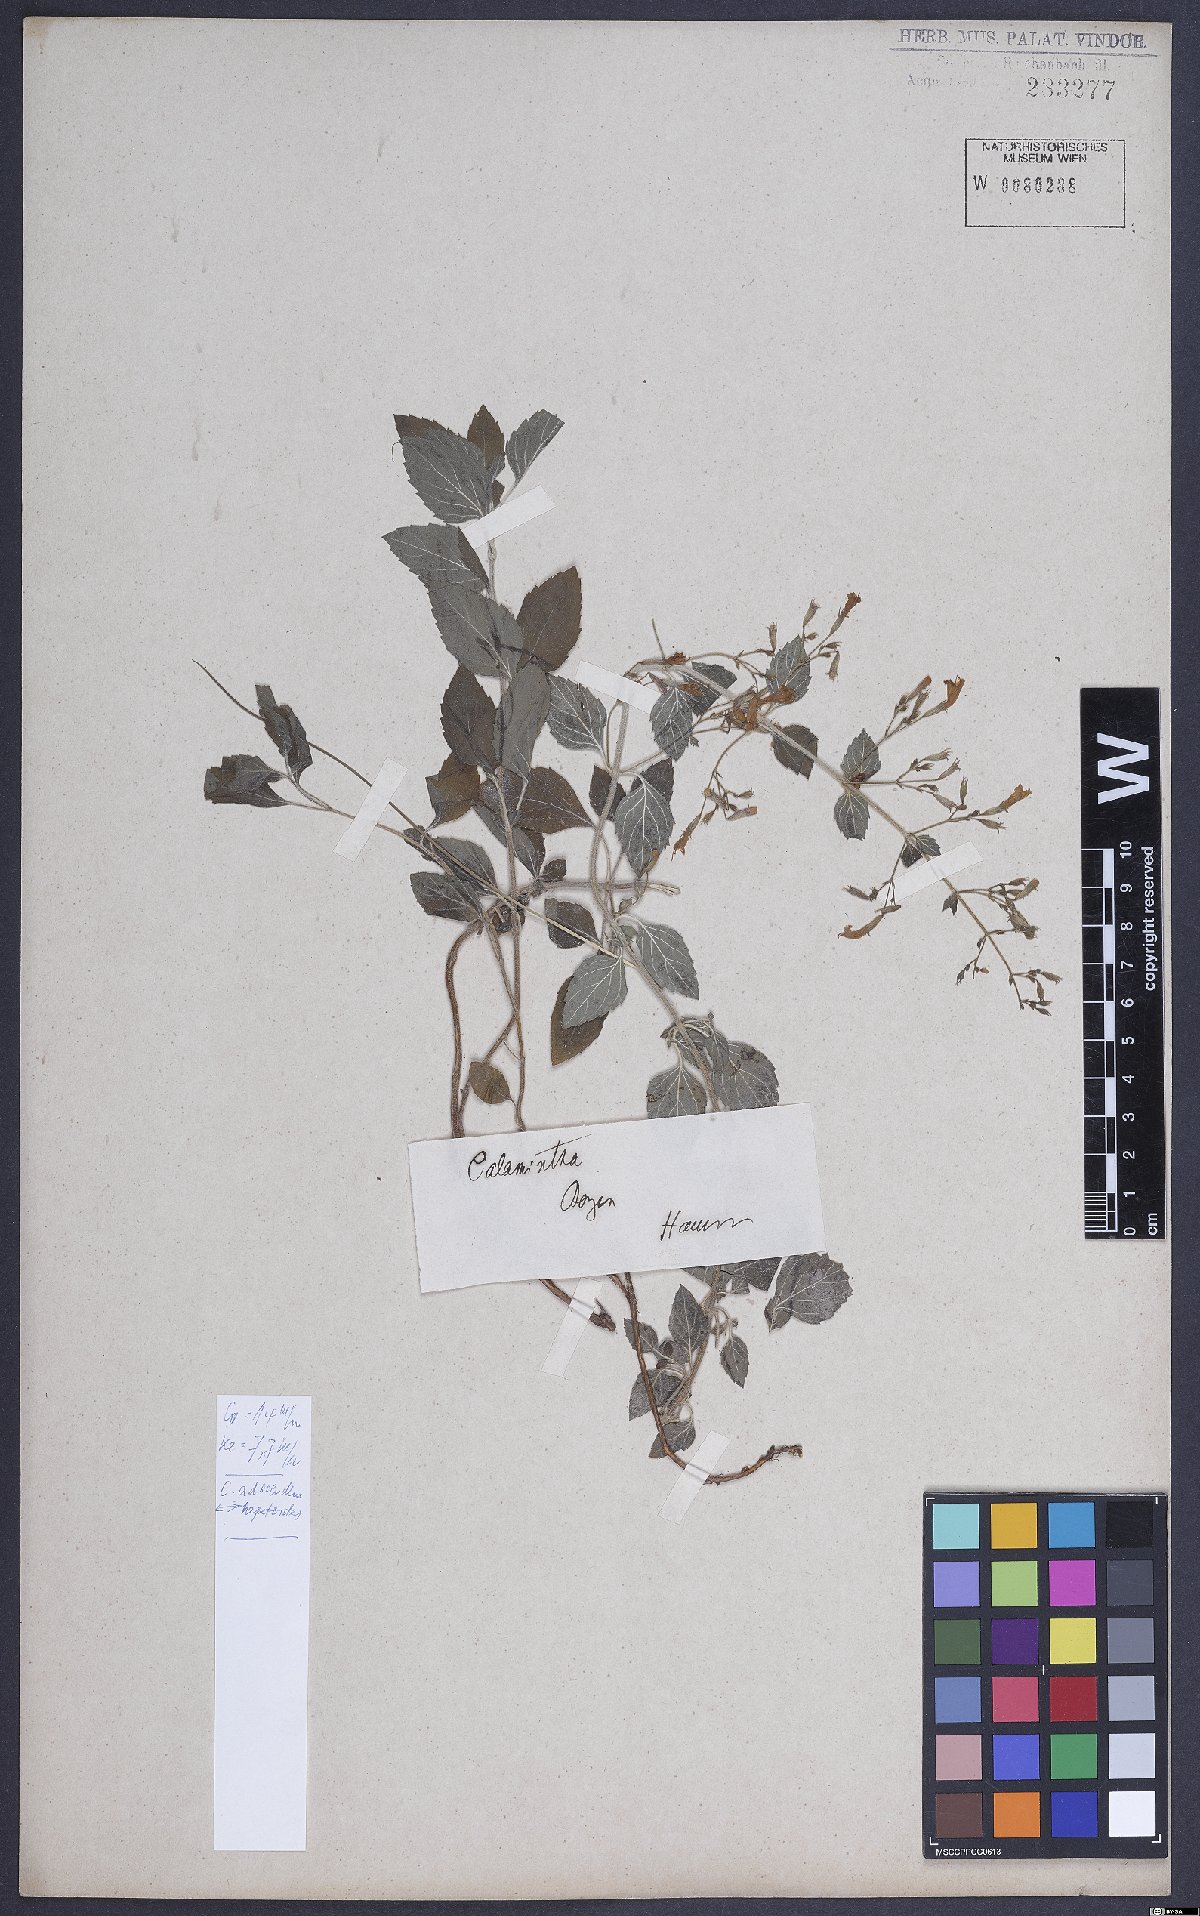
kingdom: Plantae
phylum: Tracheophyta
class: Magnoliopsida
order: Lamiales
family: Lamiaceae
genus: Clinopodium
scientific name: Clinopodium menthifolium
